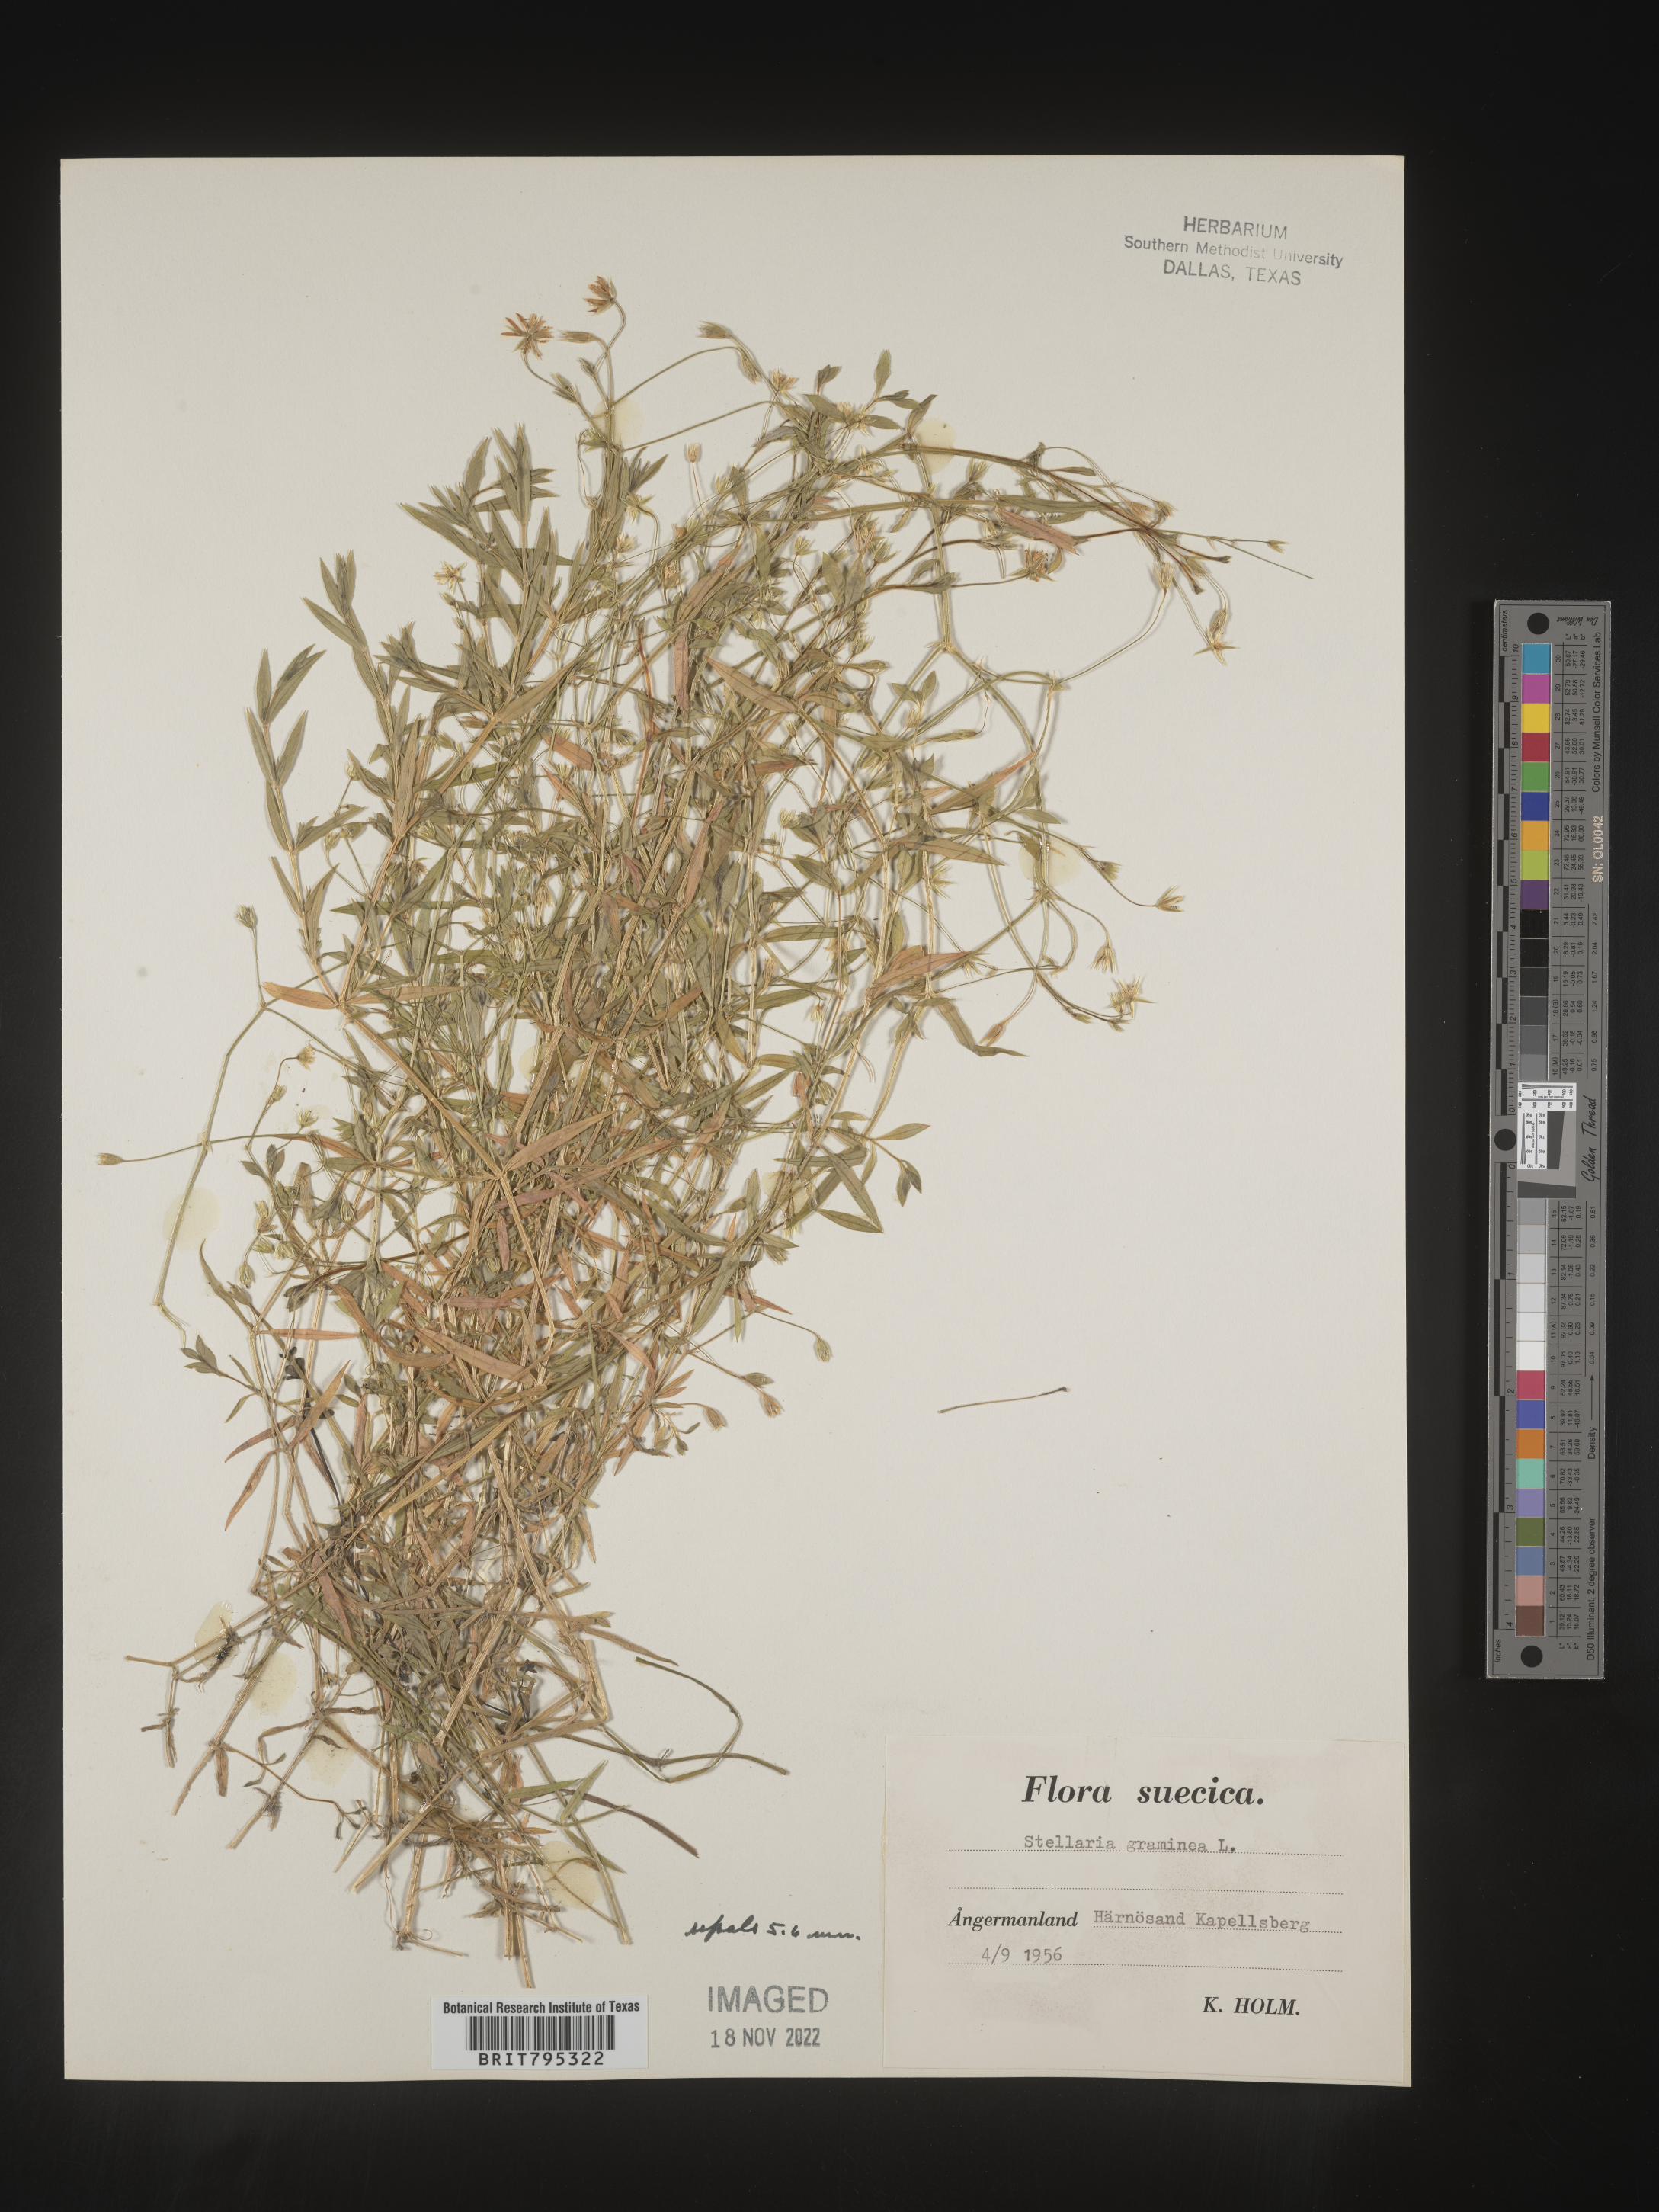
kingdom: Plantae
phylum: Tracheophyta
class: Magnoliopsida
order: Caryophyllales
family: Caryophyllaceae
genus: Stellaria
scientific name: Stellaria
